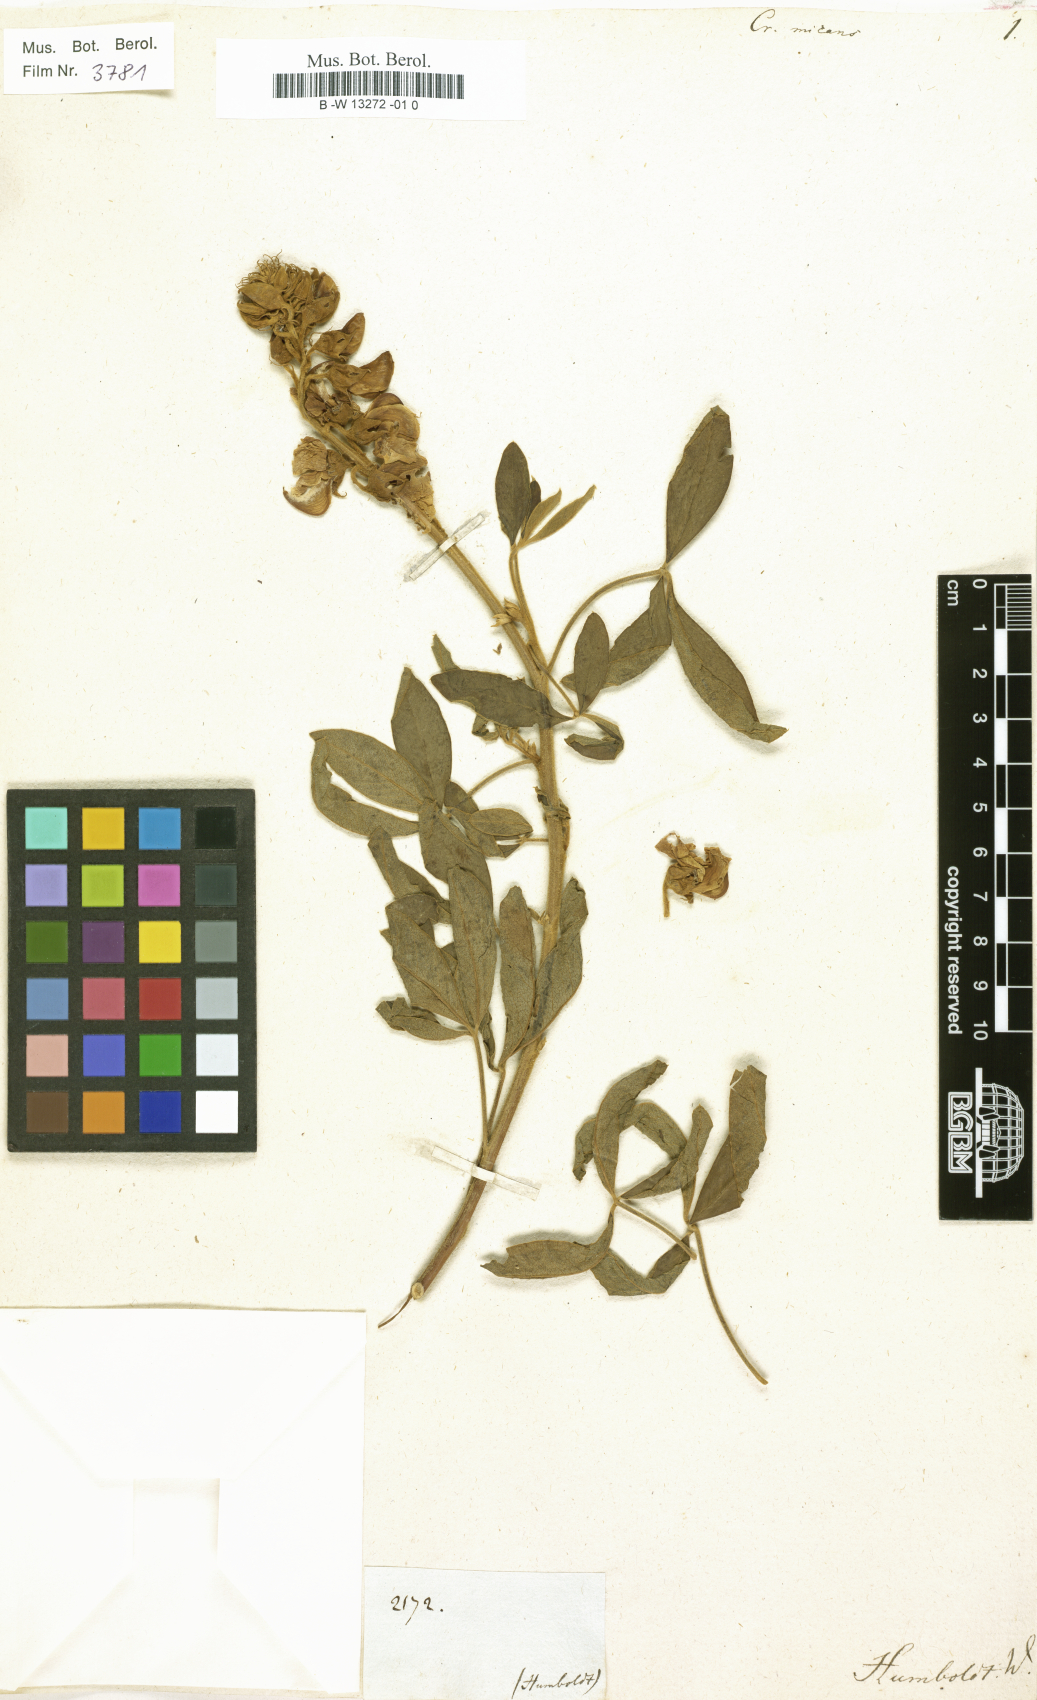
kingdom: Plantae
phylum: Tracheophyta
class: Magnoliopsida
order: Fabales
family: Fabaceae
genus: Crotalaria
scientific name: Crotalaria micans
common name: Caracas rattlebox
